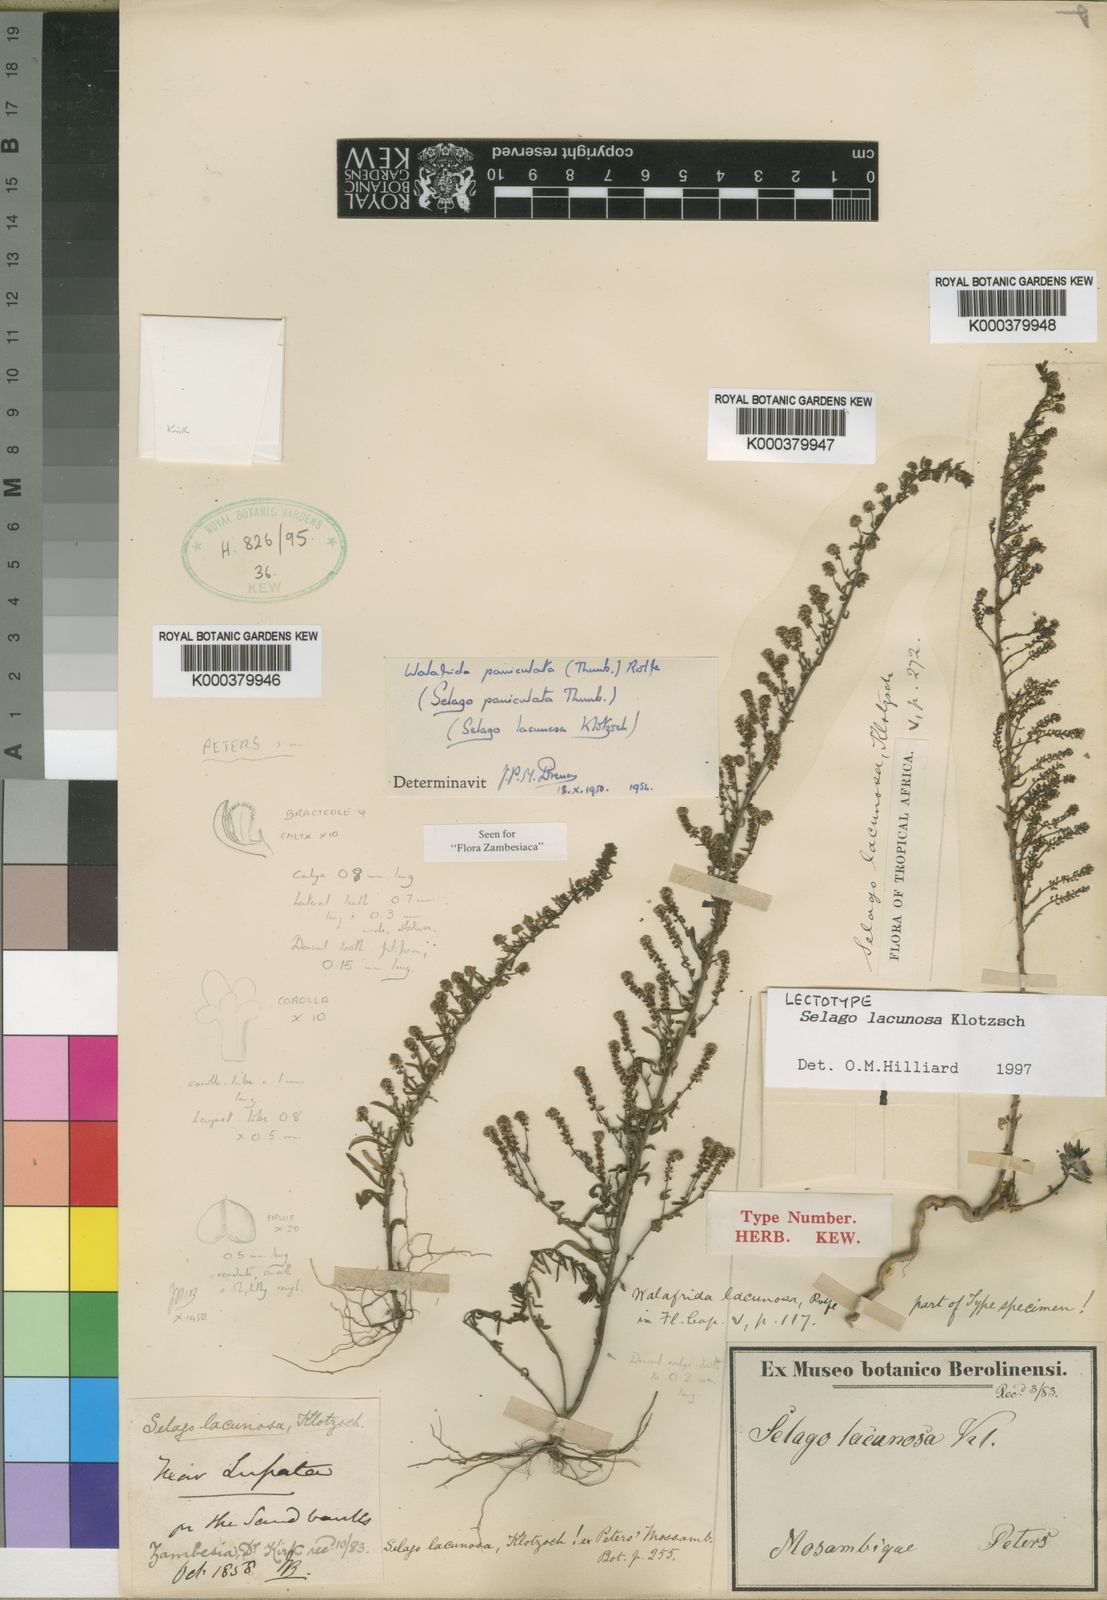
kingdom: Plantae
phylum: Tracheophyta
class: Magnoliopsida
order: Lamiales
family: Scrophulariaceae
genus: Selago
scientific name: Selago lacunosa
